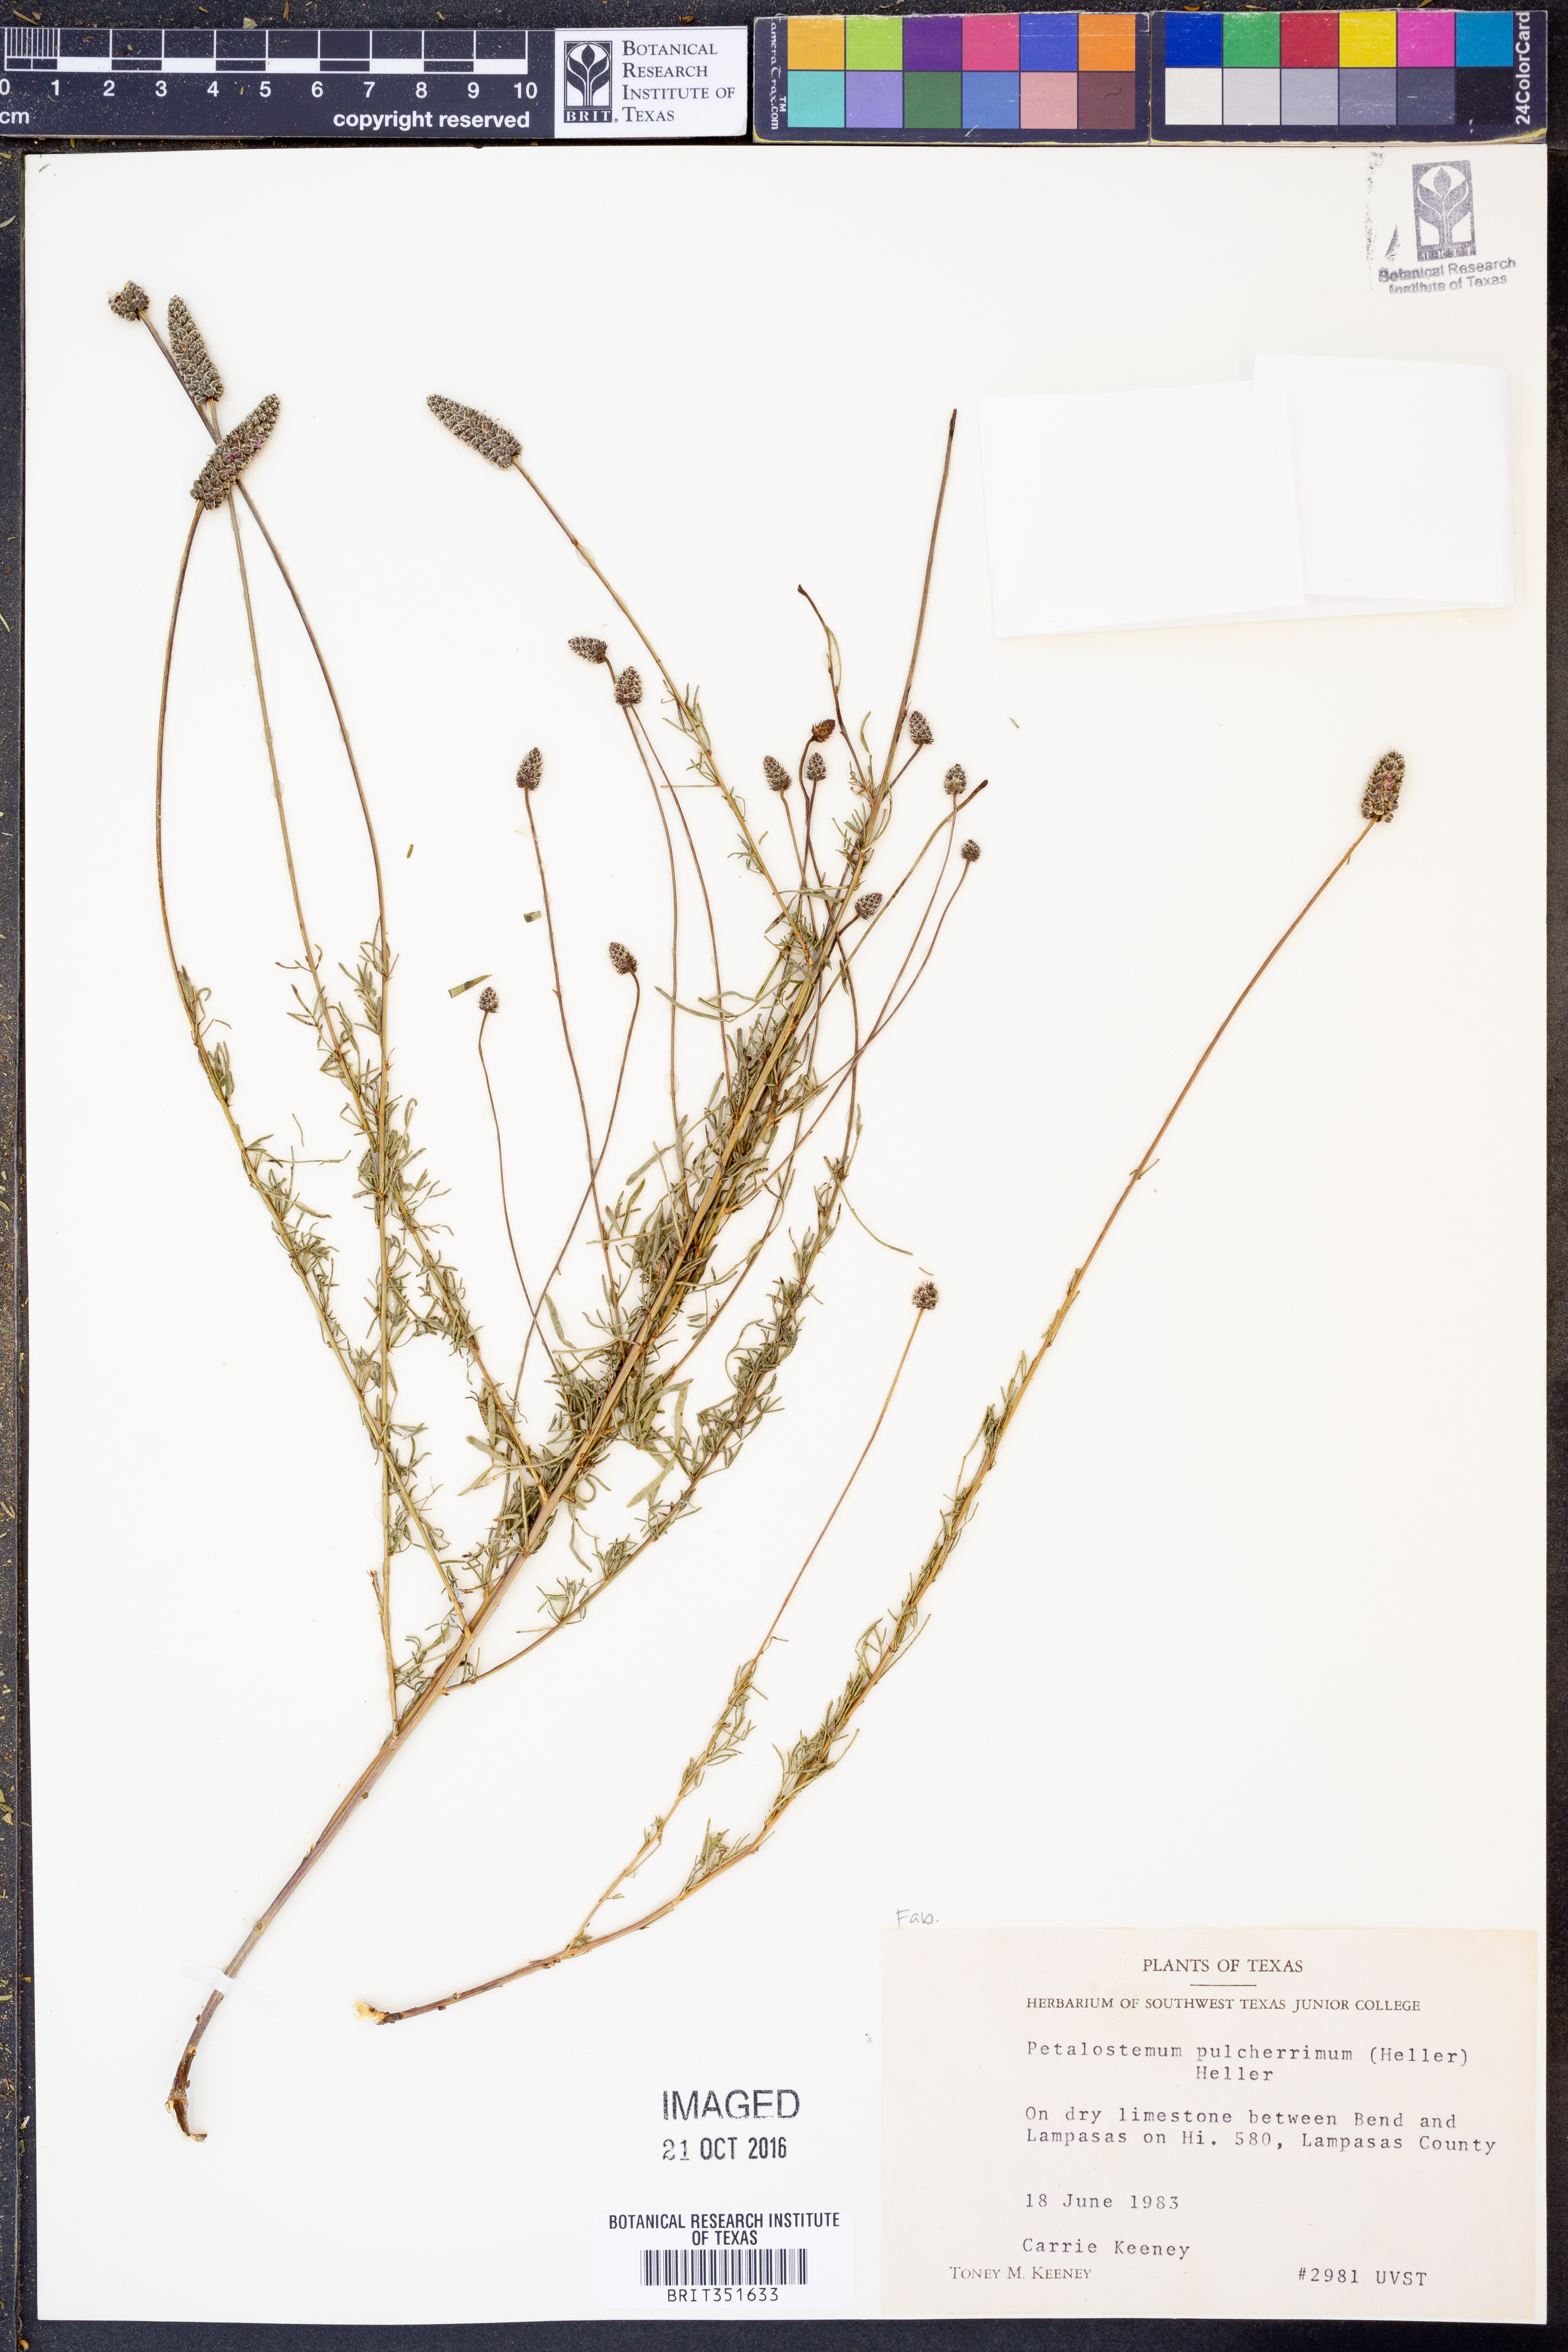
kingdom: Plantae
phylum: Tracheophyta
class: Magnoliopsida
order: Fabales
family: Fabaceae
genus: Dalea
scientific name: Dalea compacta
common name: Compact prairie-clover
